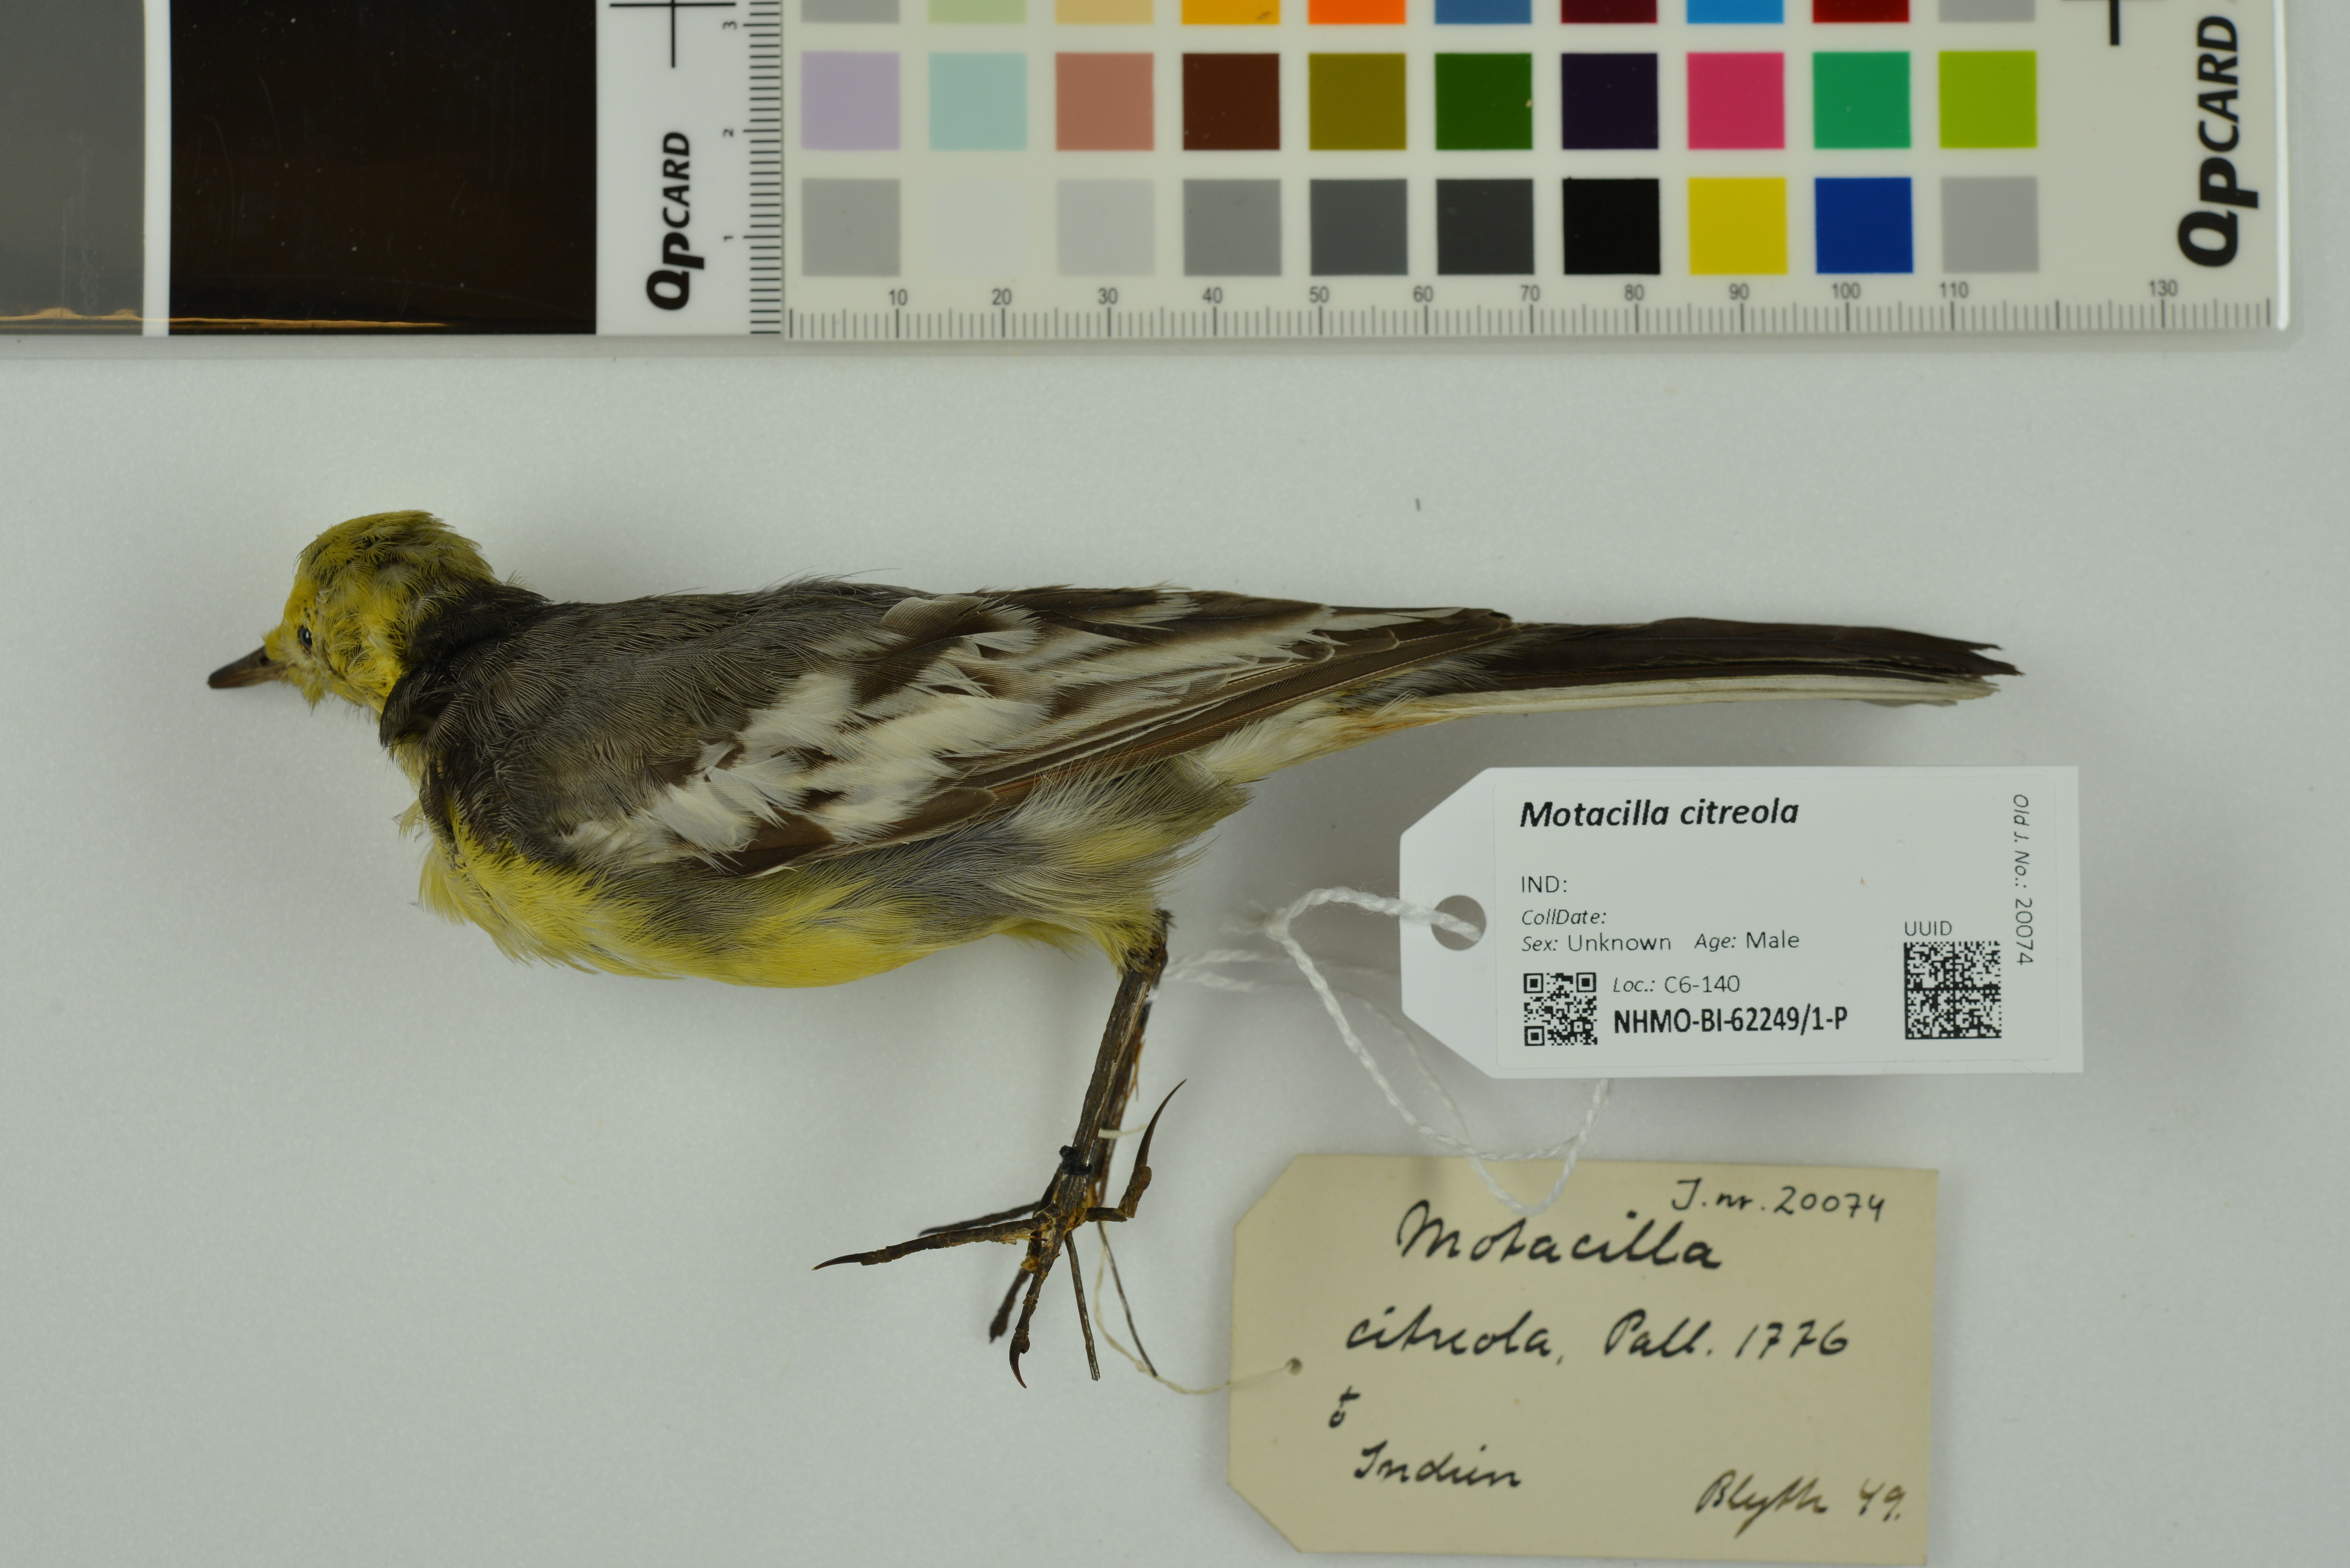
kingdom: Animalia
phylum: Chordata
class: Aves
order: Passeriformes
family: Motacillidae
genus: Motacilla
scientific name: Motacilla citreola
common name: Citrine wagtail
